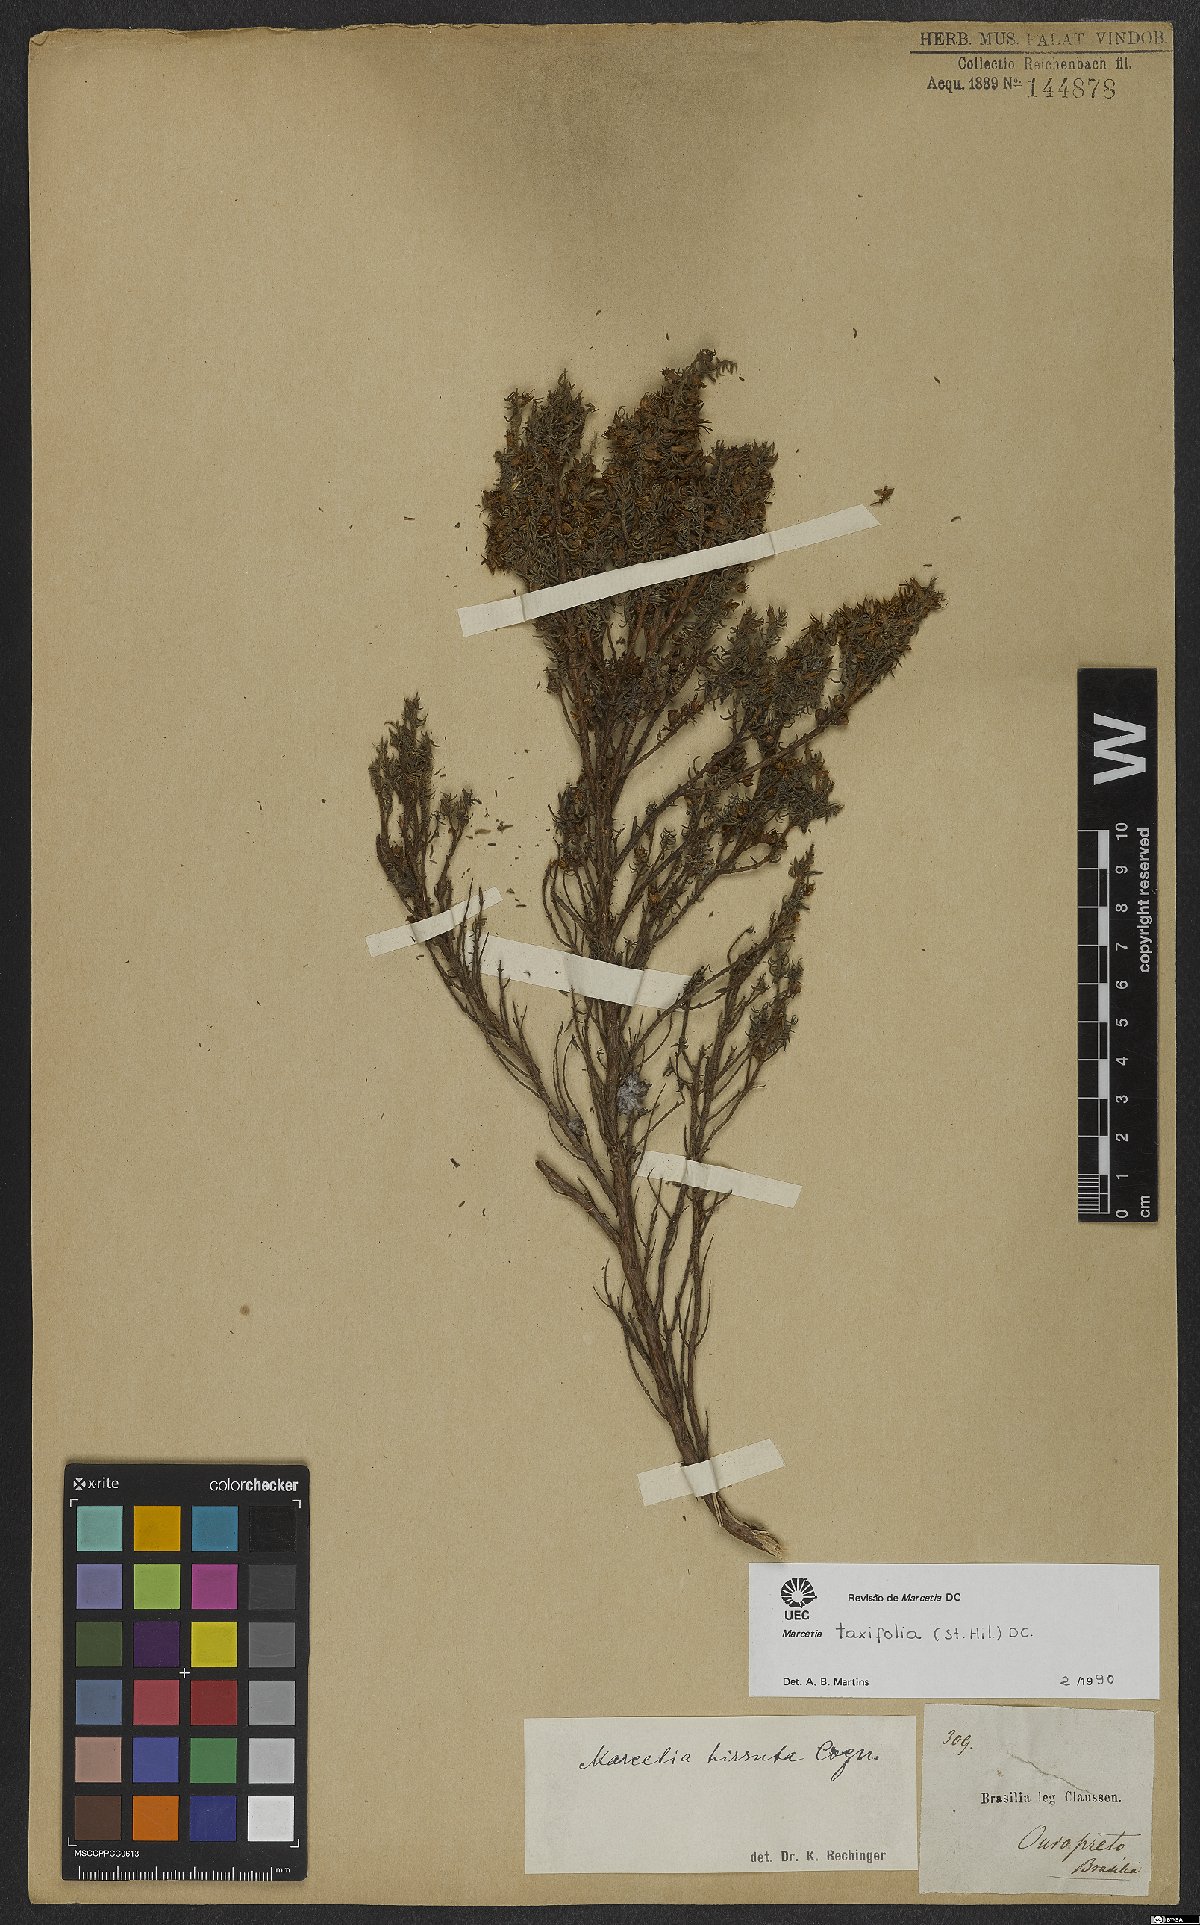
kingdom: Plantae
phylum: Tracheophyta
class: Magnoliopsida
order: Myrtales
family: Melastomataceae
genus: Marcetia
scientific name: Marcetia taxifolia
